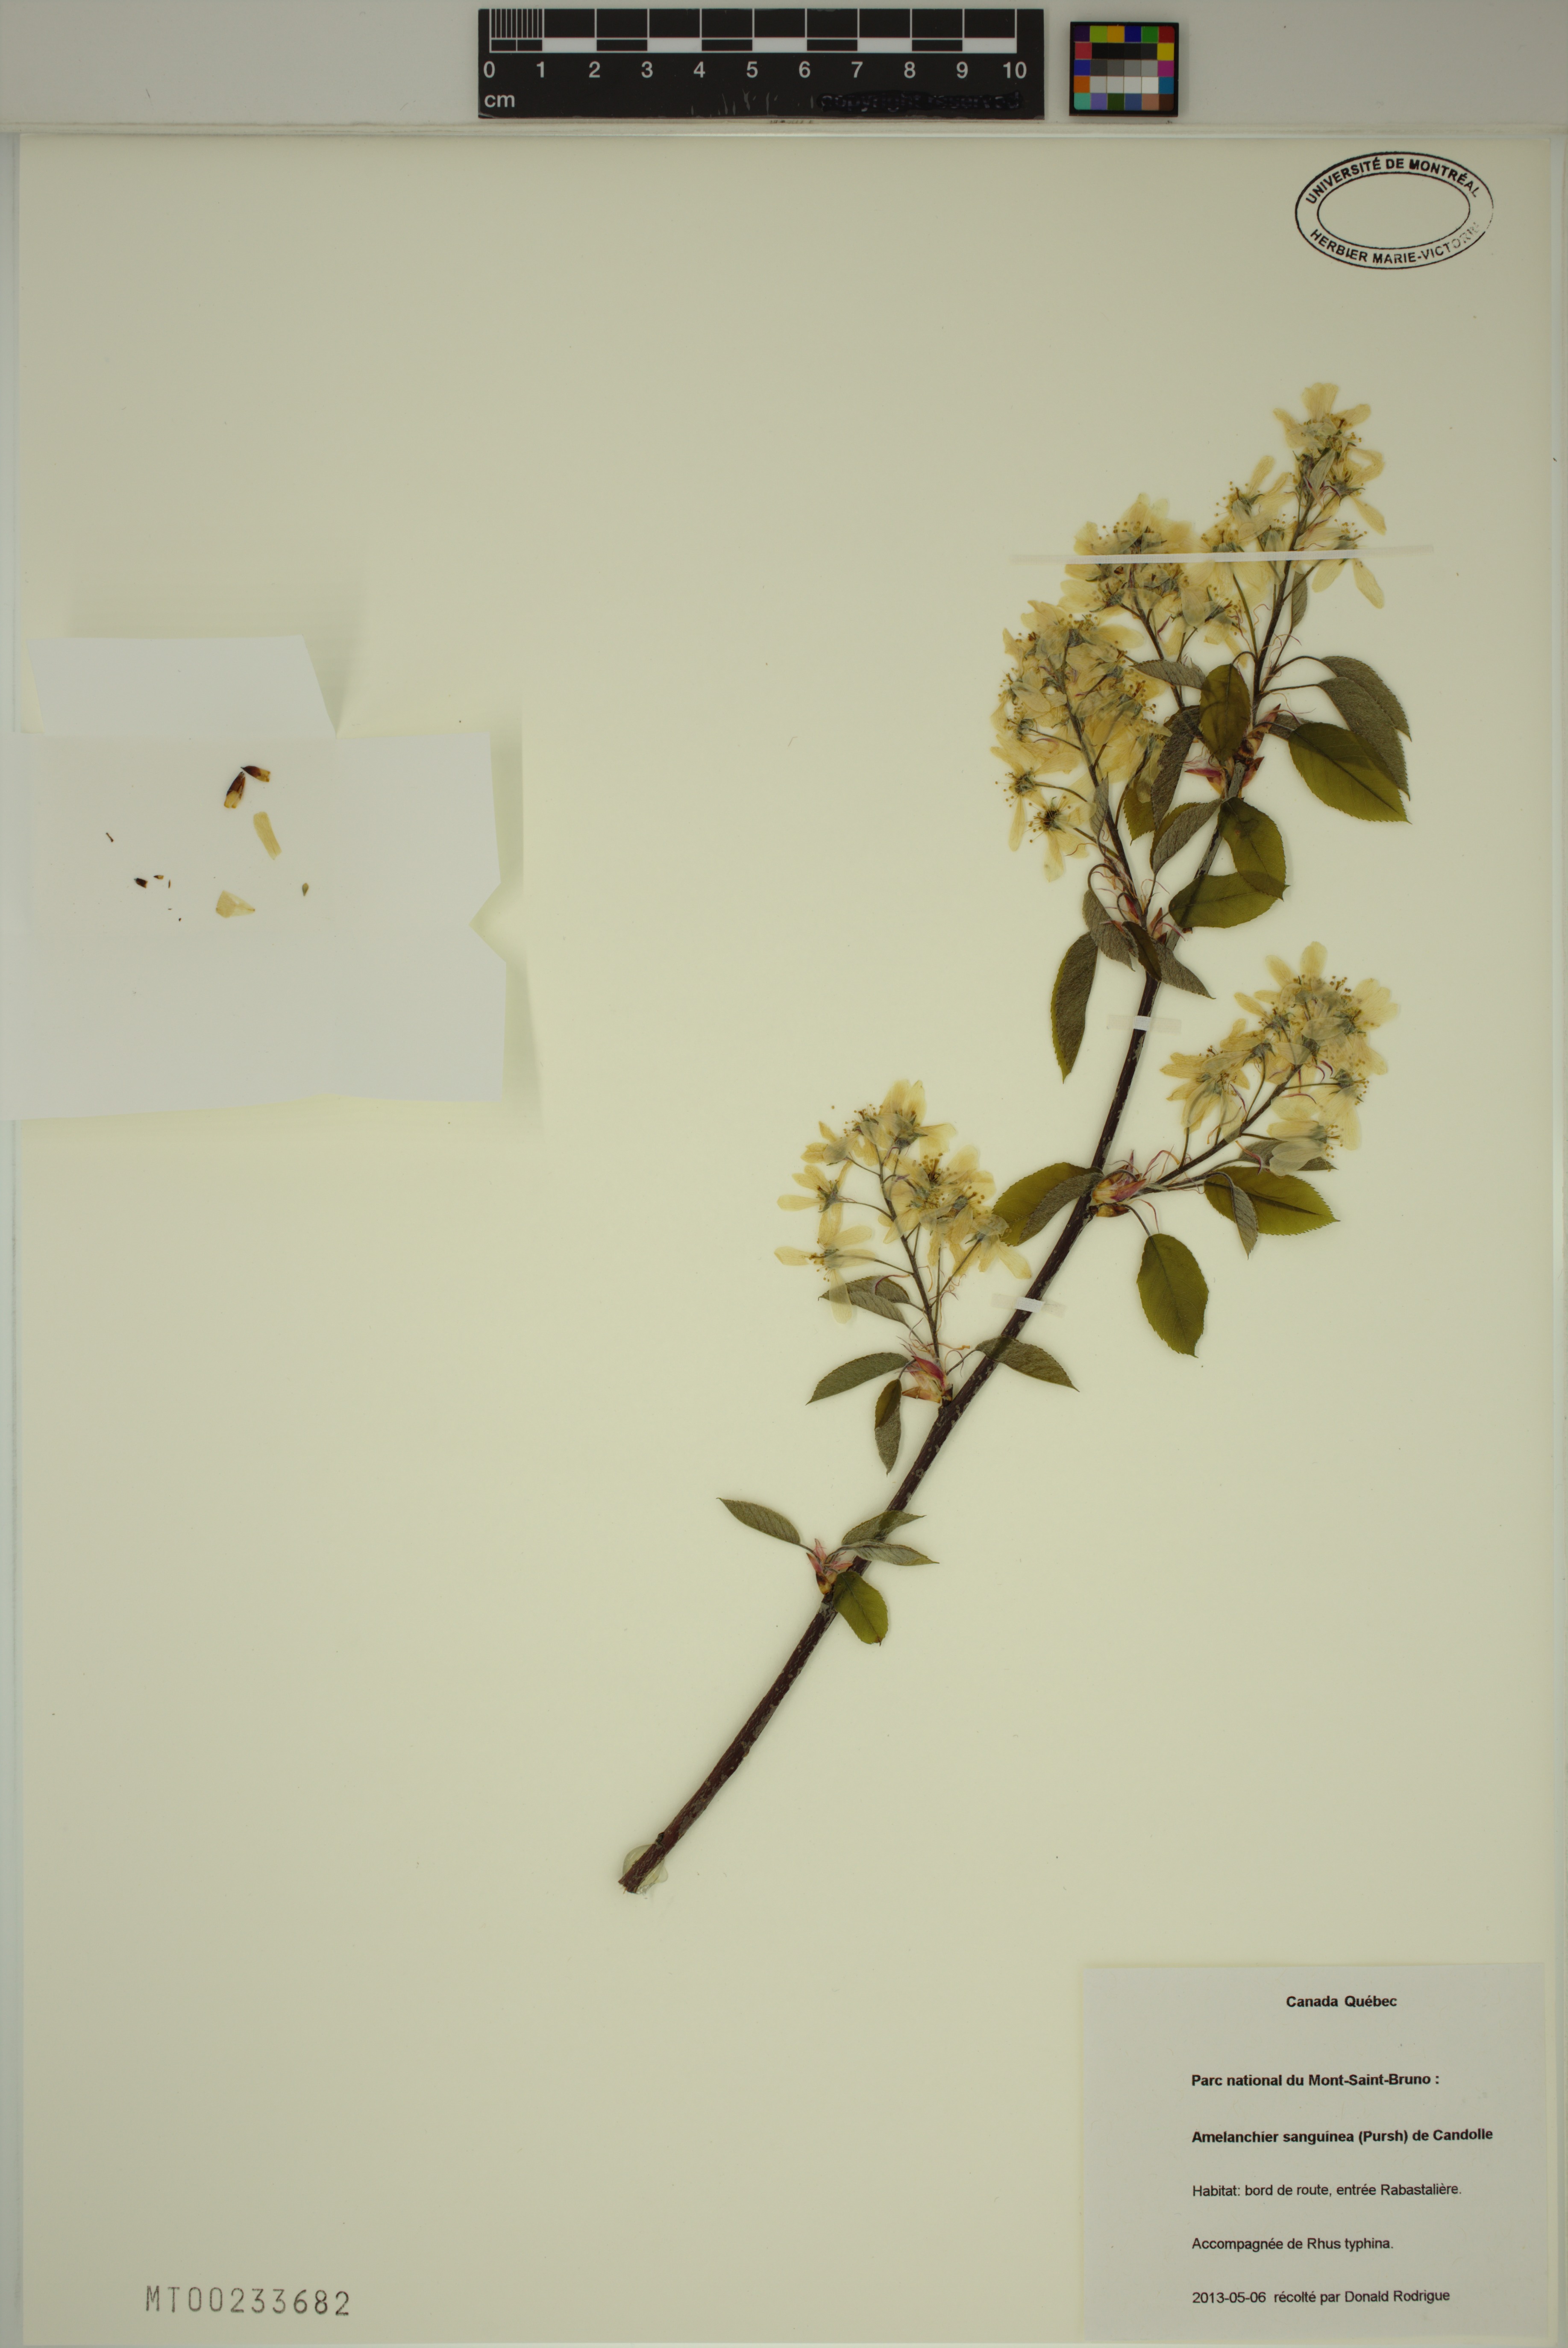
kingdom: Plantae
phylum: Tracheophyta
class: Magnoliopsida
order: Rosales
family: Rosaceae
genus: Amelanchier
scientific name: Amelanchier sanguinea
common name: Huron serviceberry
